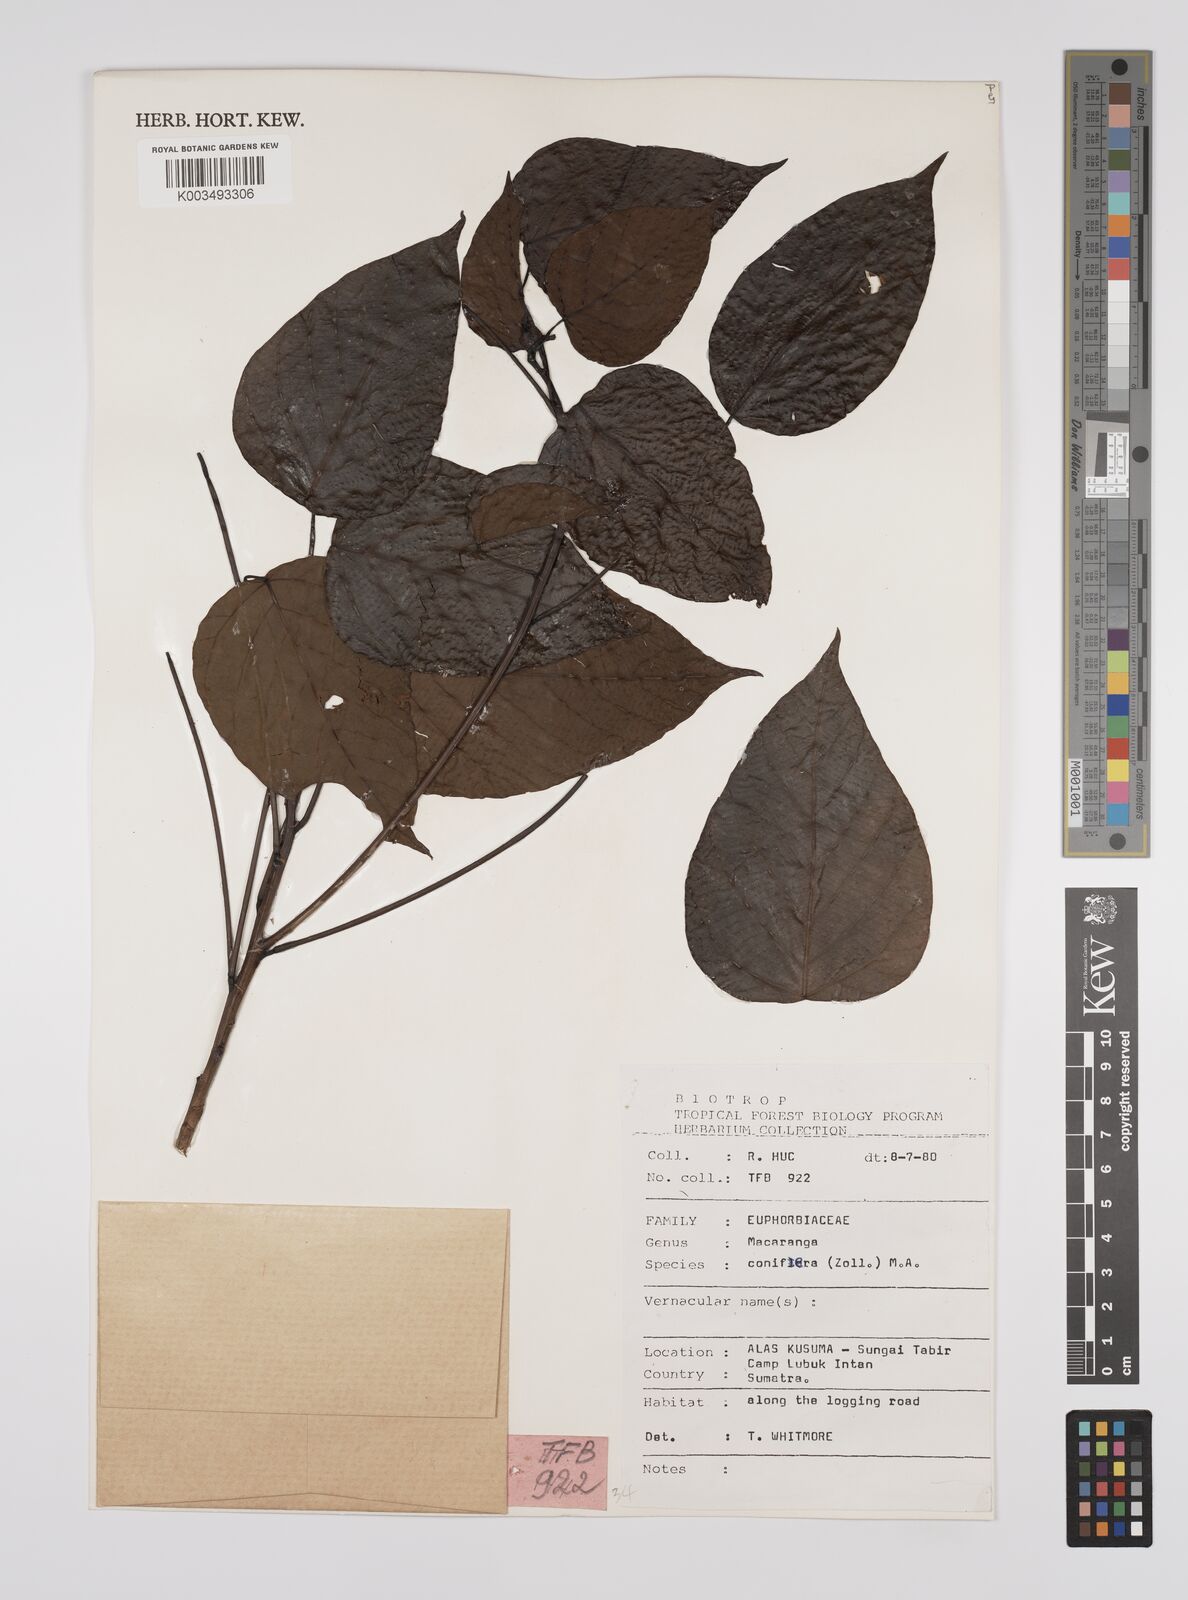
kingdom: Plantae
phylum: Tracheophyta
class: Magnoliopsida
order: Malpighiales
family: Euphorbiaceae
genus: Macaranga
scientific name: Macaranga conifera
